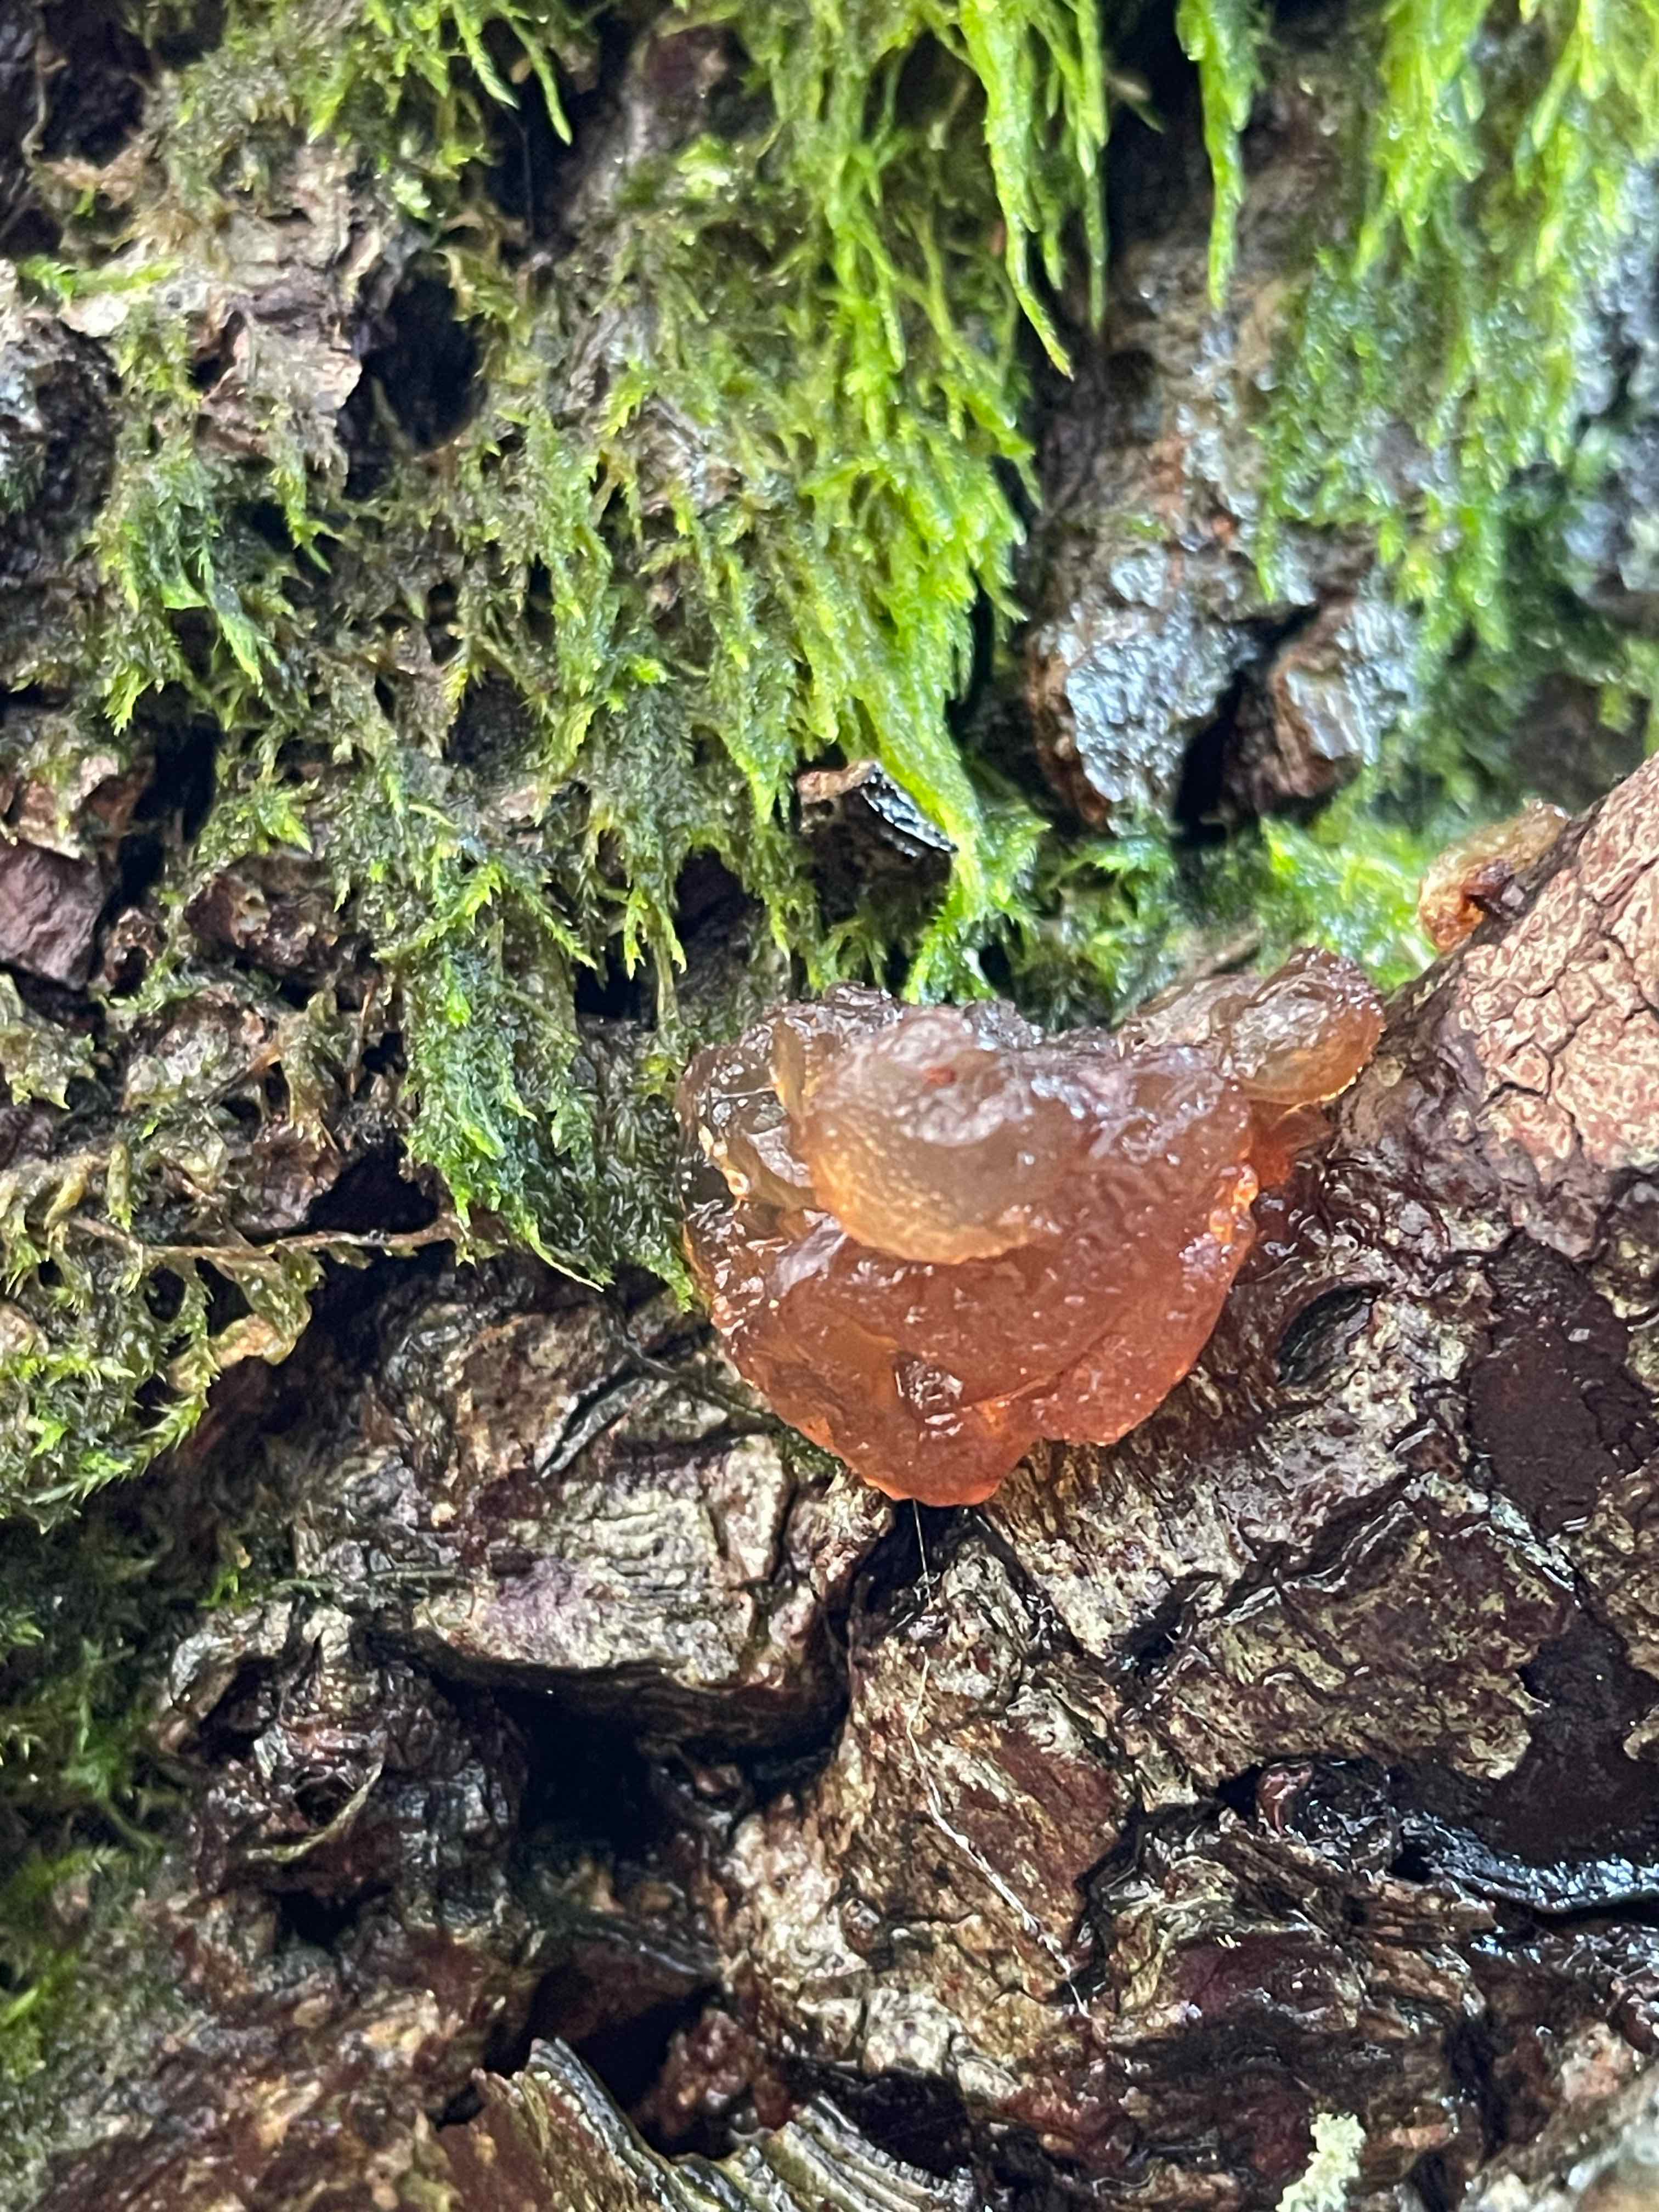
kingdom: Fungi
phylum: Basidiomycota
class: Agaricomycetes
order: Auriculariales
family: Auriculariaceae
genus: Exidia
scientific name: Exidia recisa
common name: pile-bævretop
